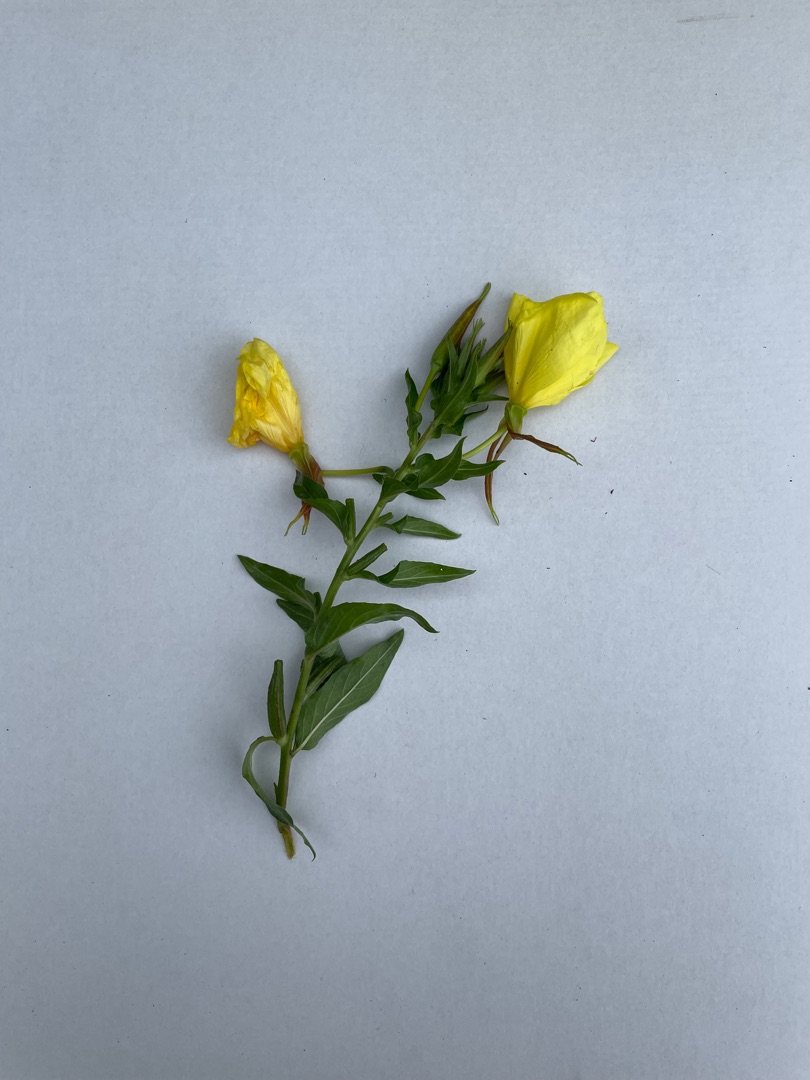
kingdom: Plantae
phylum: Tracheophyta
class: Magnoliopsida
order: Myrtales
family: Onagraceae
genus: Oenothera
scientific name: Oenothera glazioviana
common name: Kæmpe-natlys
